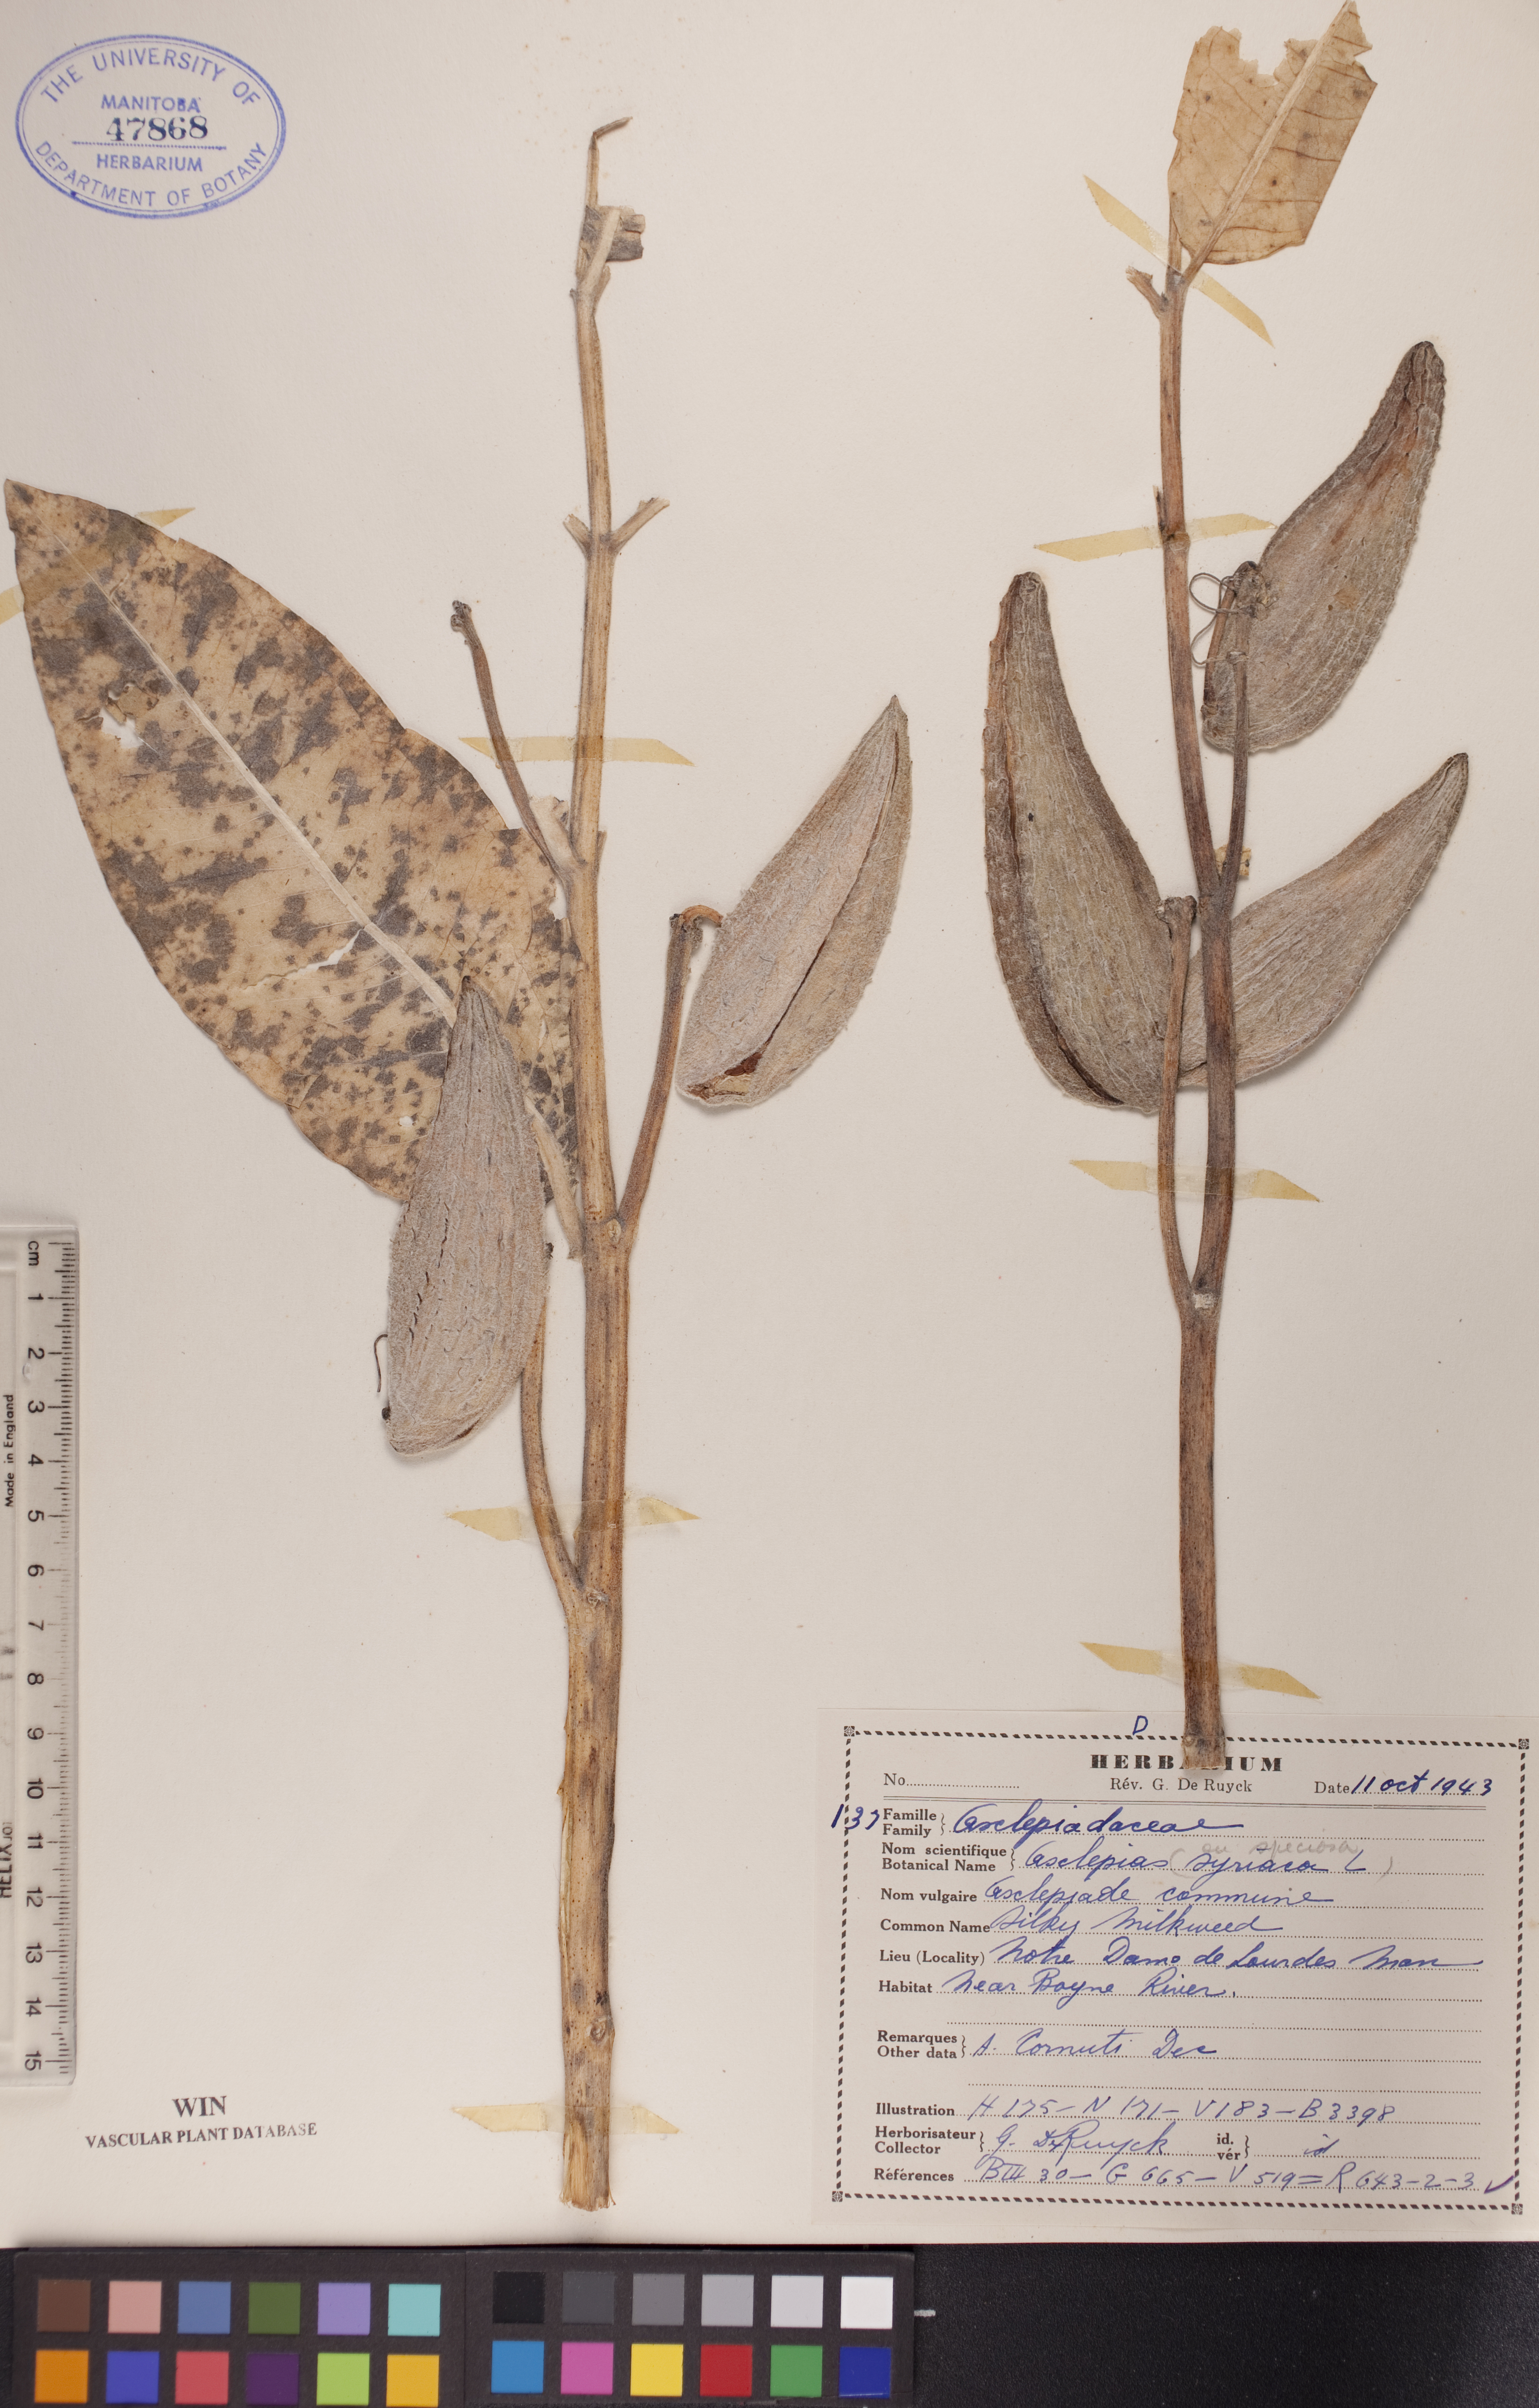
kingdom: Plantae
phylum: Tracheophyta
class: Magnoliopsida
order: Gentianales
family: Apocynaceae
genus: Asclepias
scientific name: Asclepias speciosa
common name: Showy milkweed
